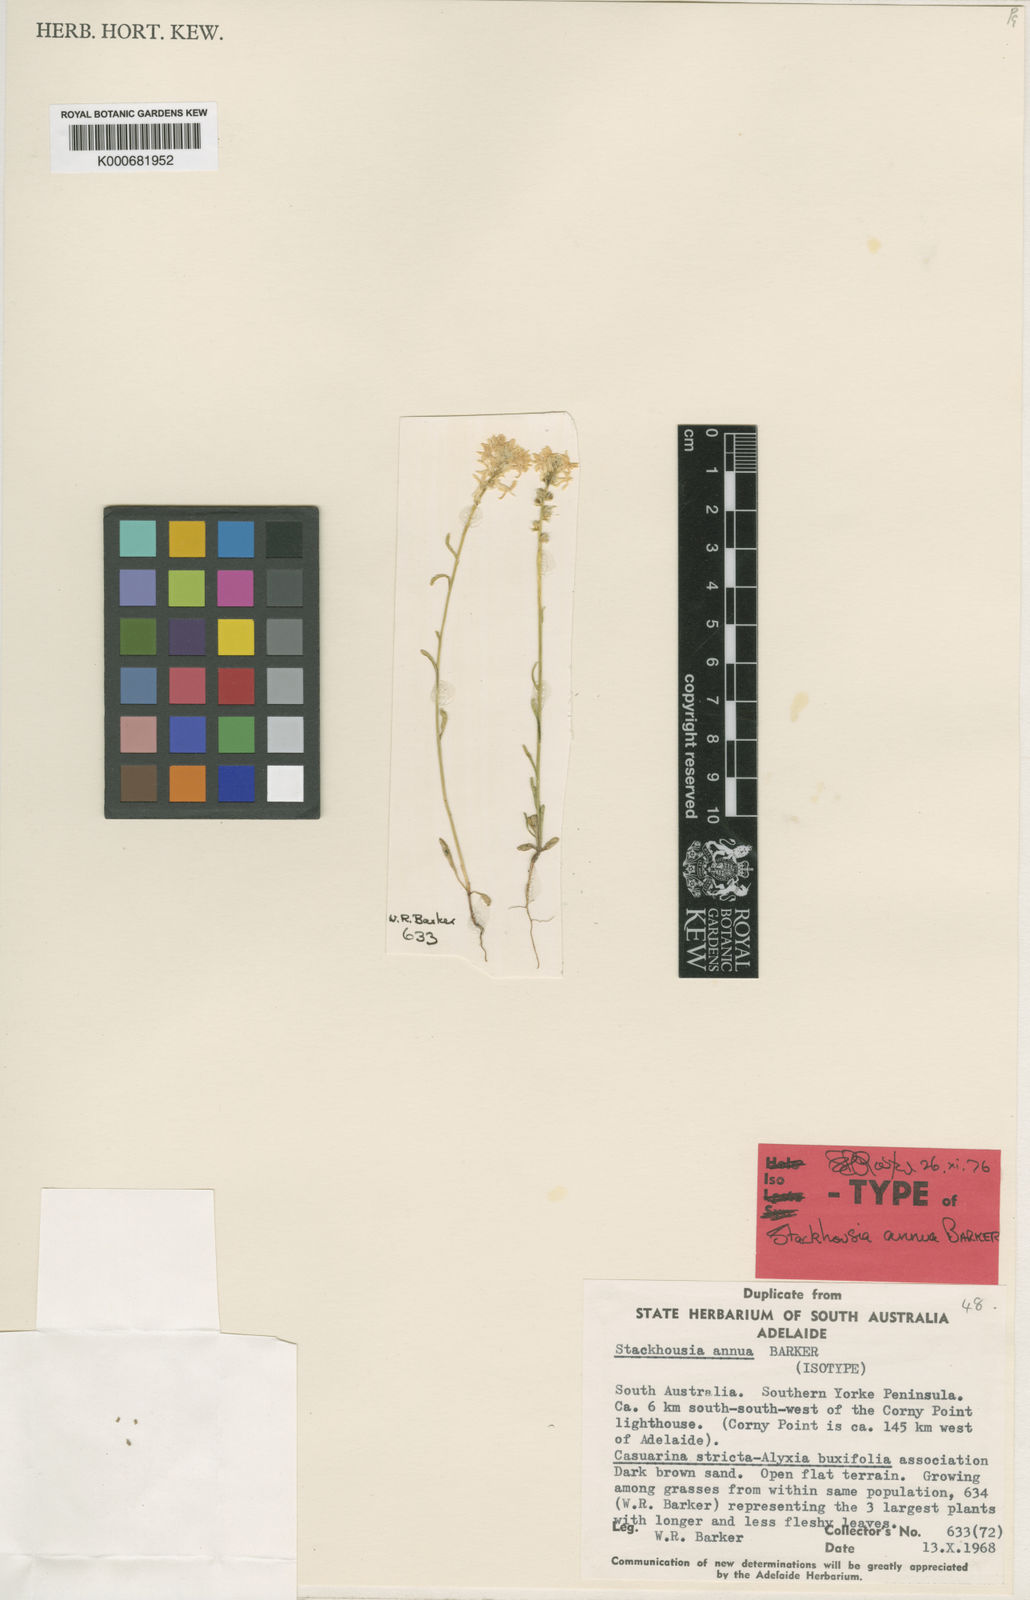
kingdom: Plantae
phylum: Tracheophyta
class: Magnoliopsida
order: Celastrales
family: Celastraceae
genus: Stackhousia
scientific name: Stackhousia annua
